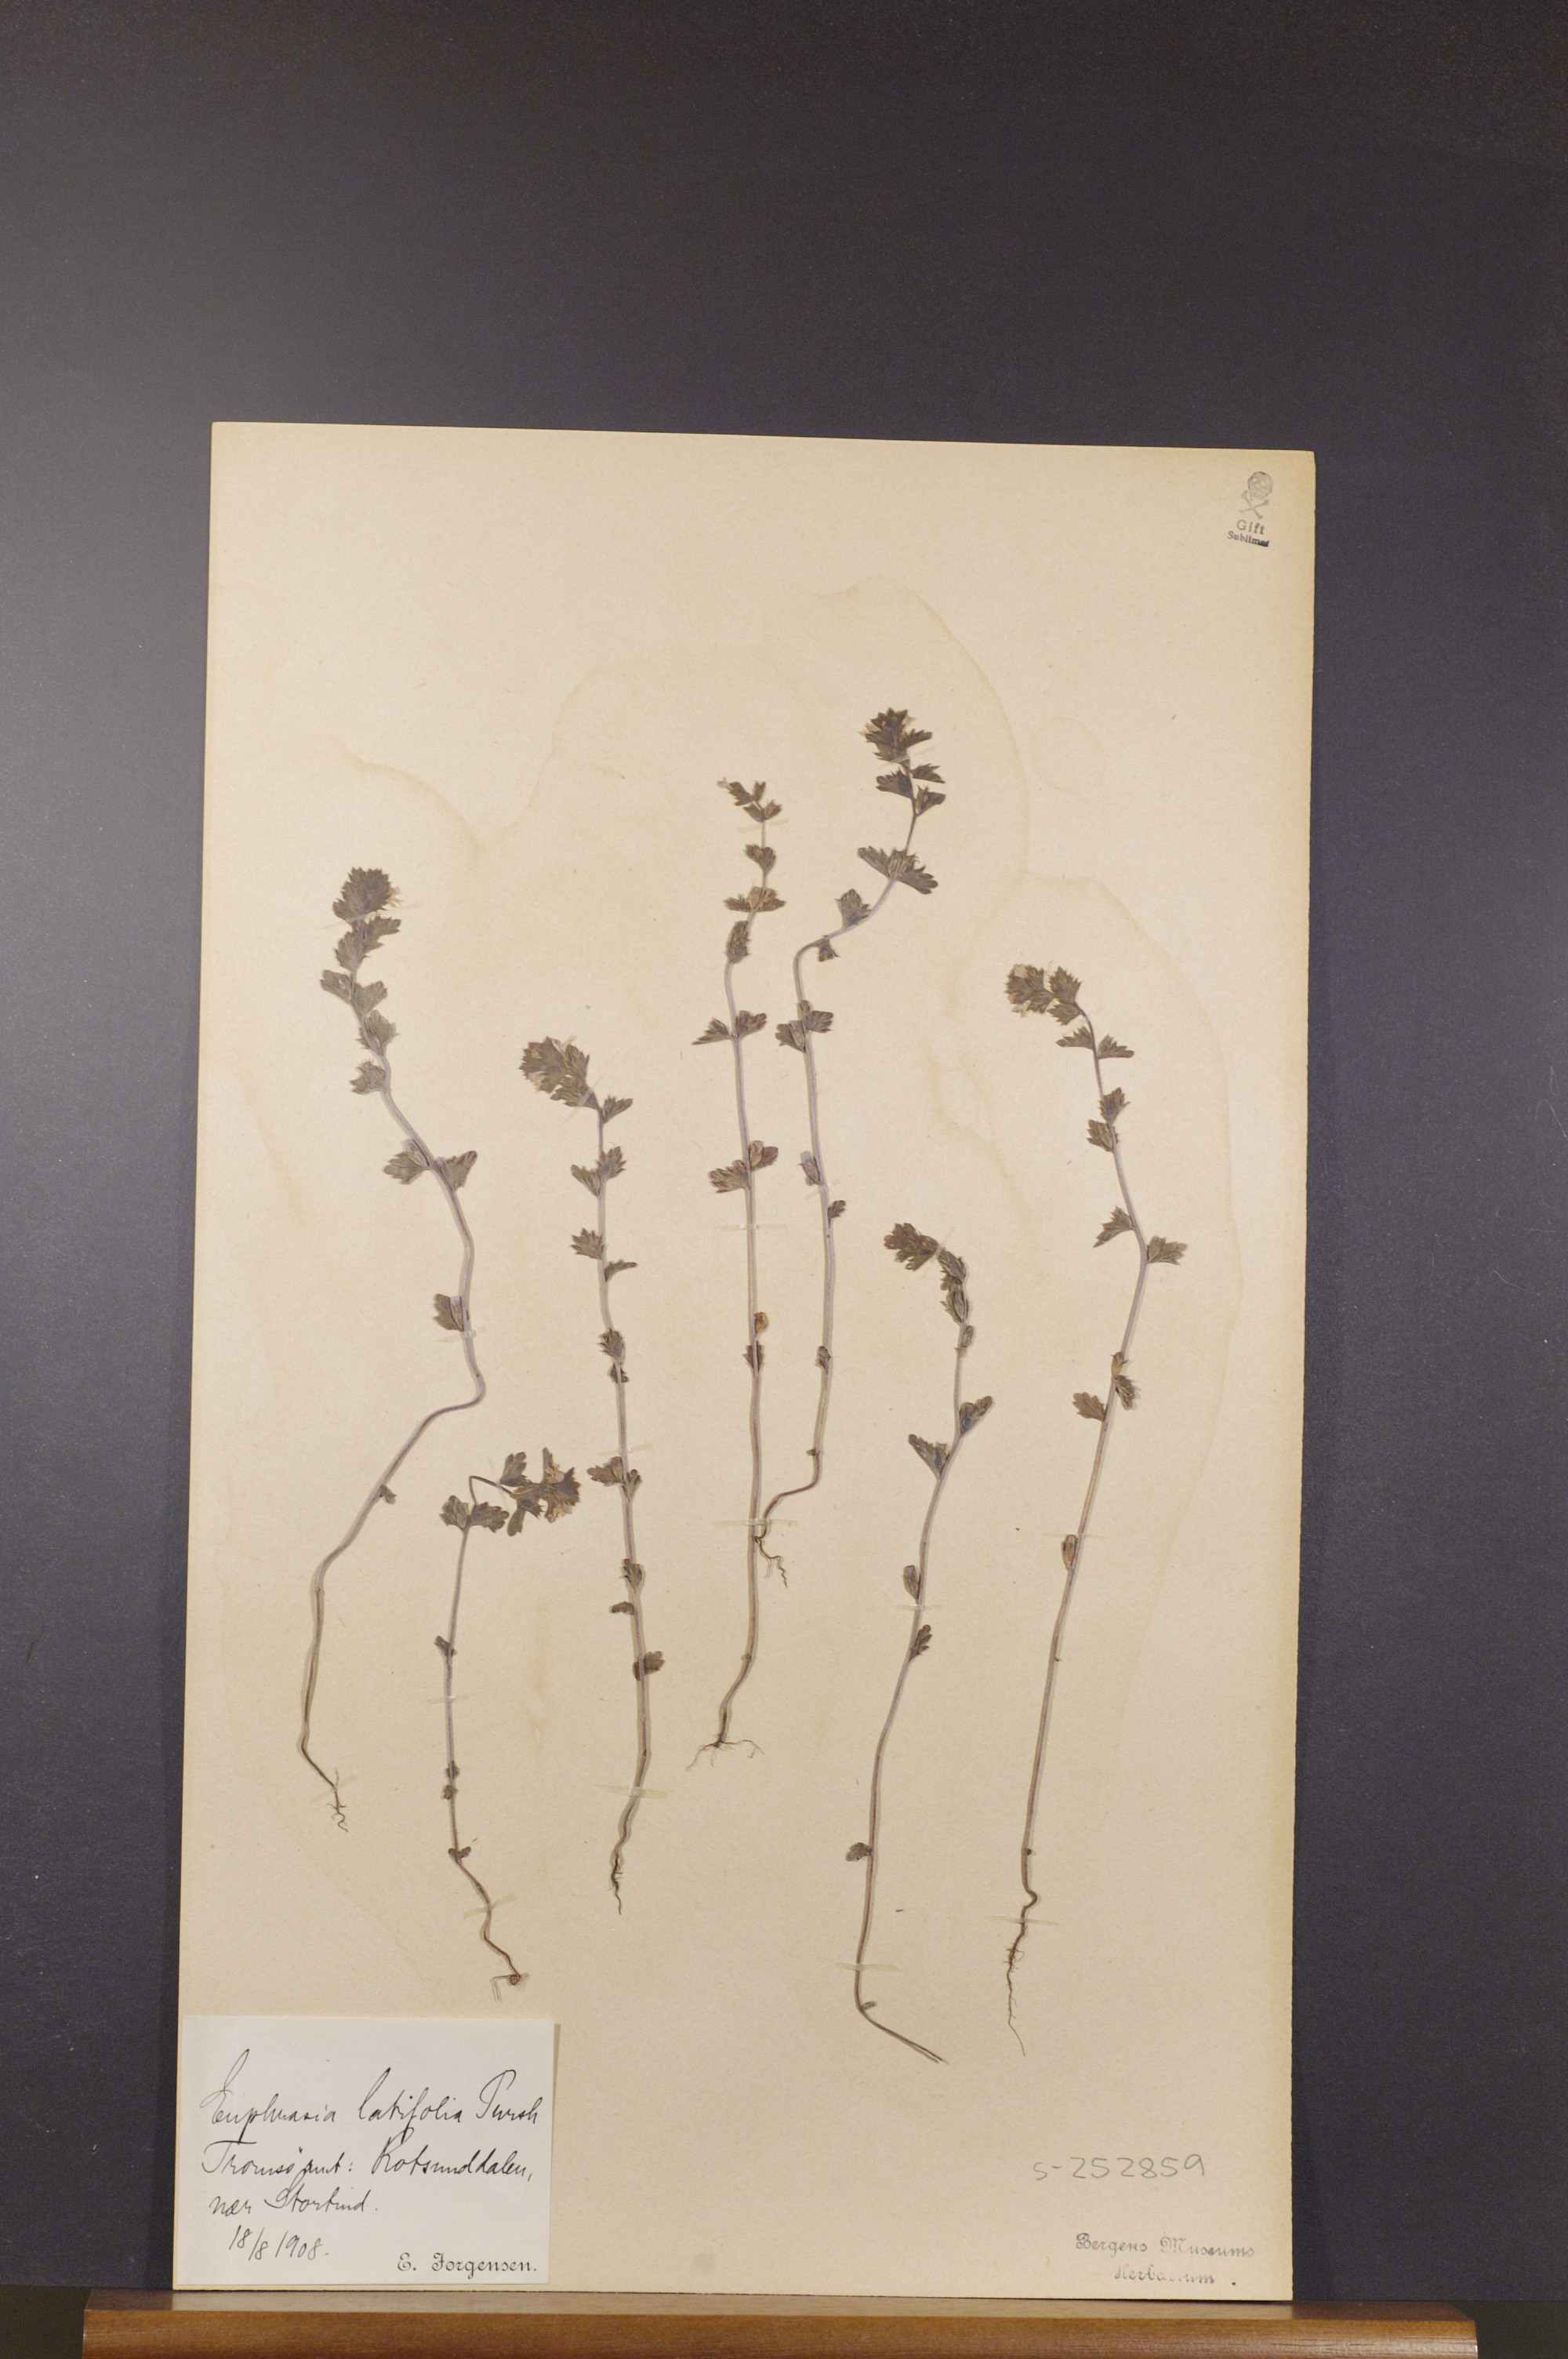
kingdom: Plantae
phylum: Tracheophyta
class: Magnoliopsida
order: Lamiales
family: Orobanchaceae
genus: Euphrasia
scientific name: Euphrasia wettsteinii
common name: Wettstein's eyebright
